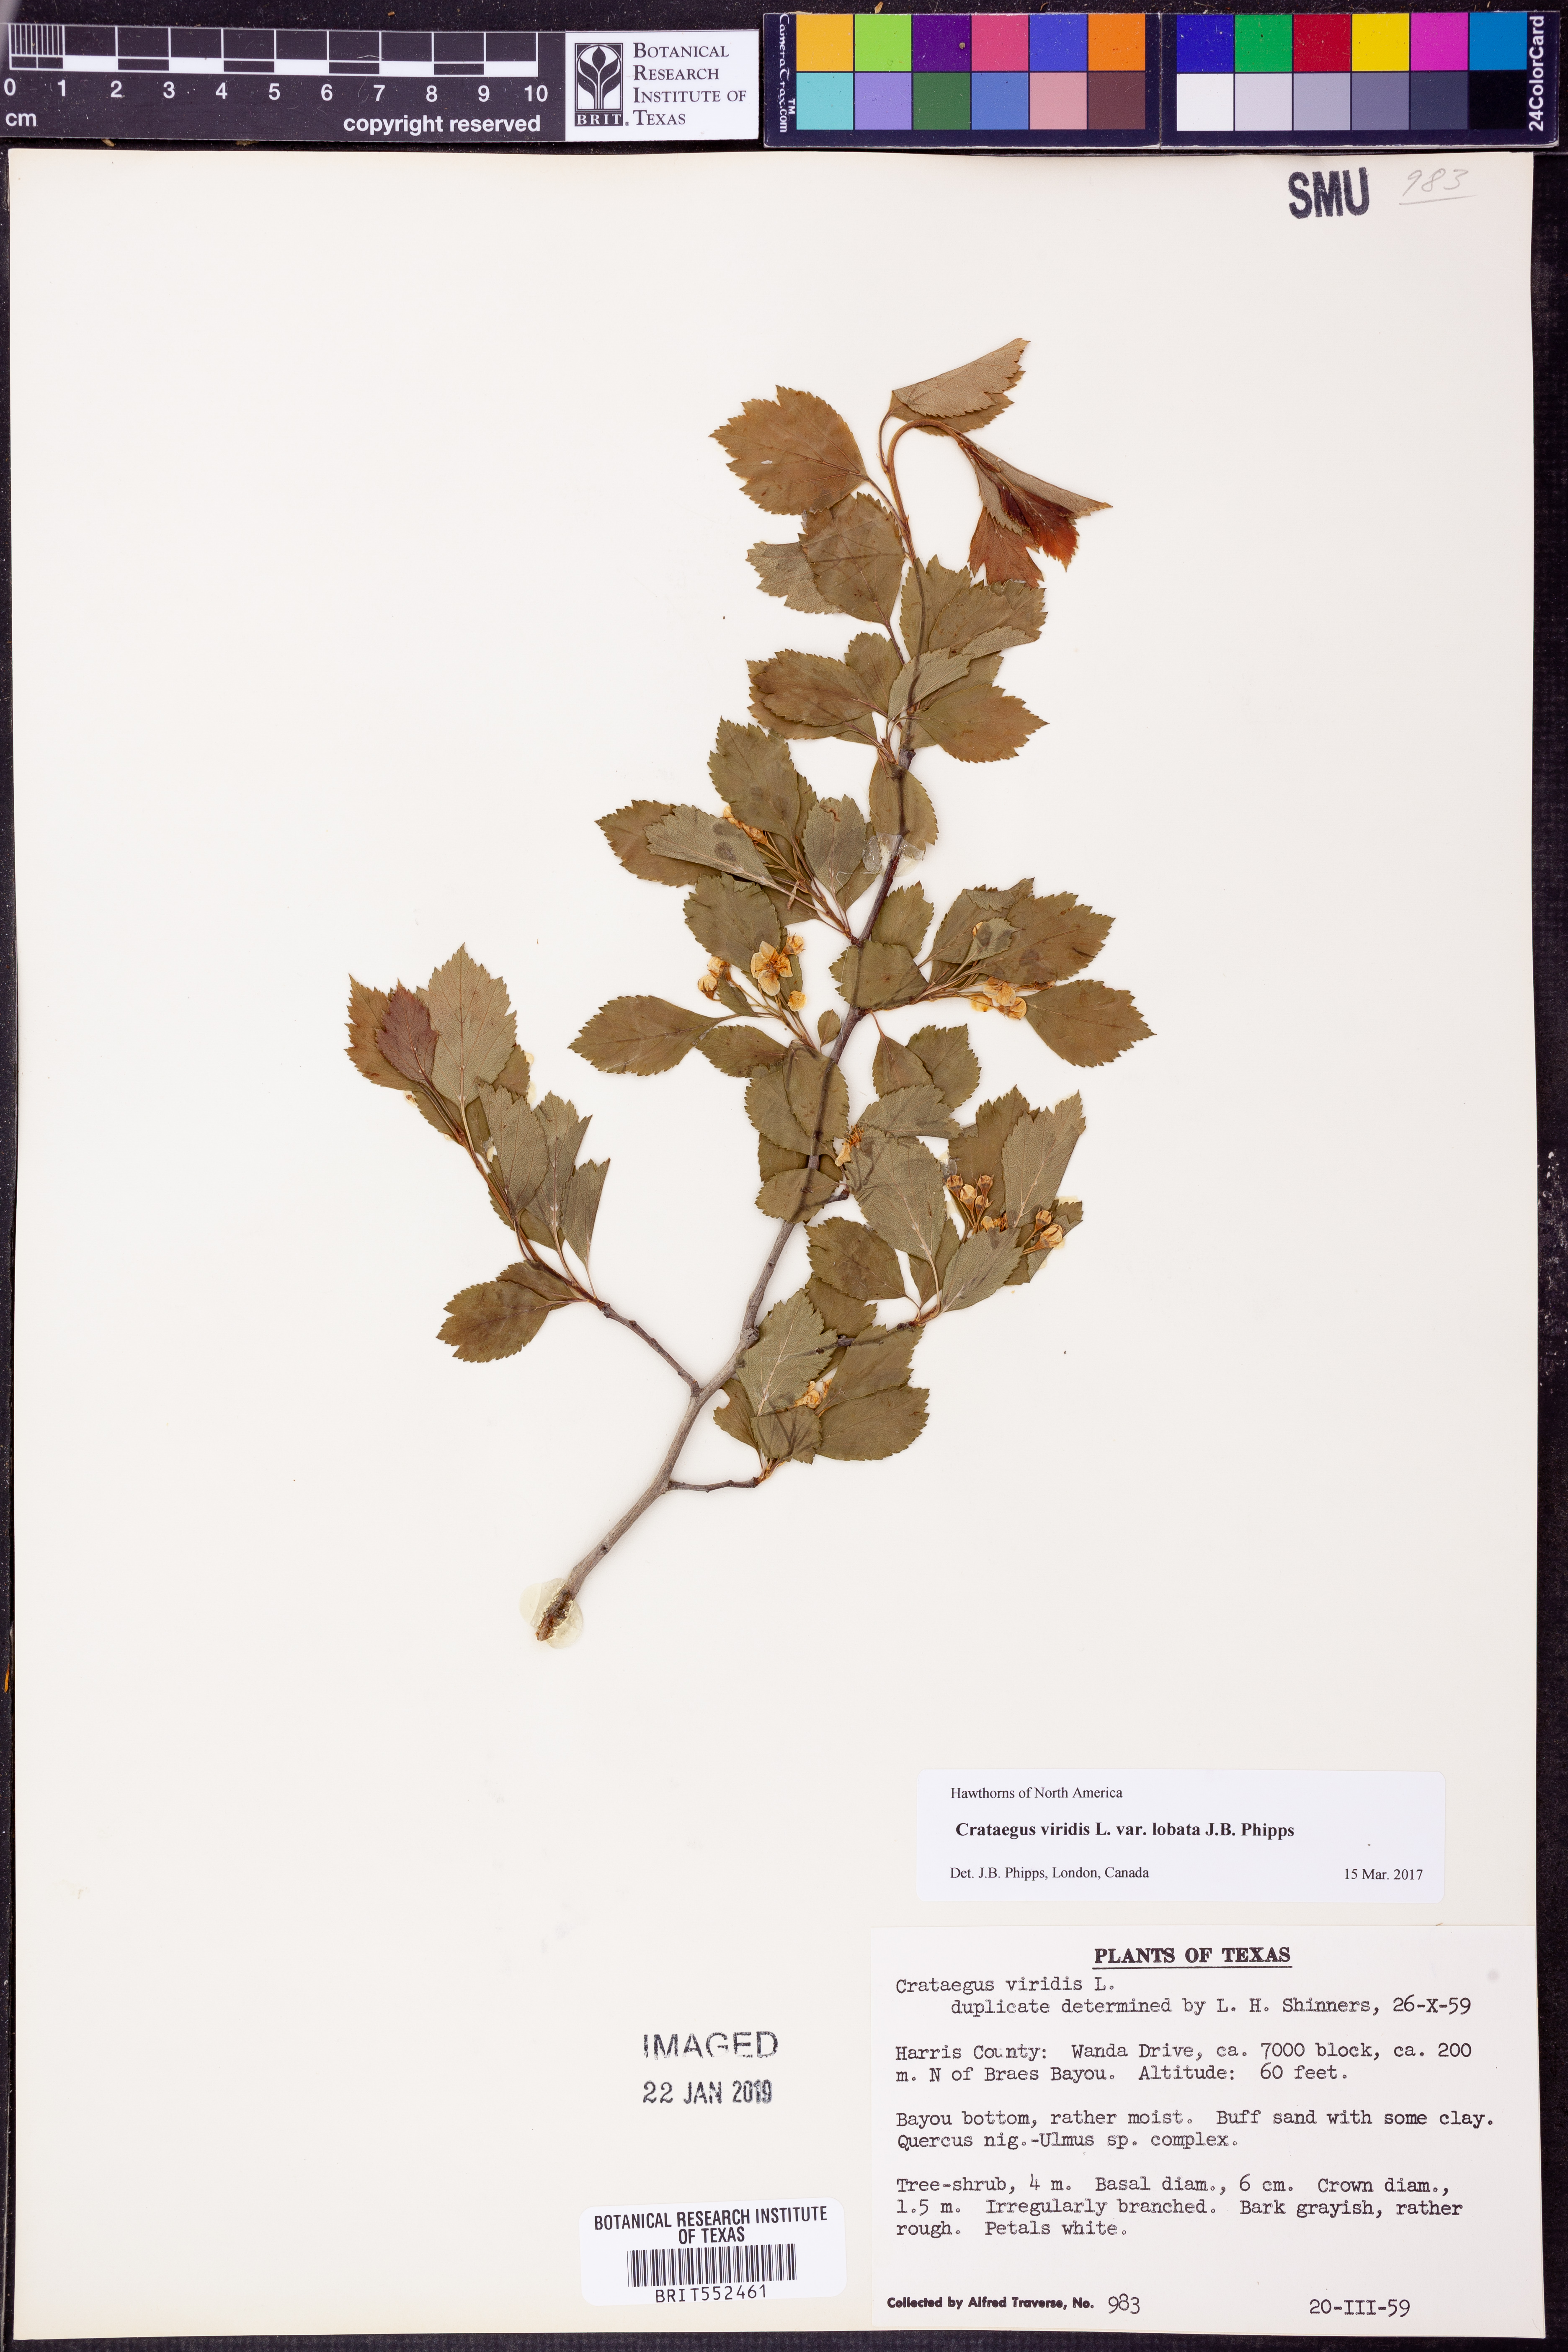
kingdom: Plantae
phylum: Tracheophyta
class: Magnoliopsida
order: Rosales
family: Rosaceae
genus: Crataegus
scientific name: Crataegus viridis
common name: Southernthorn
